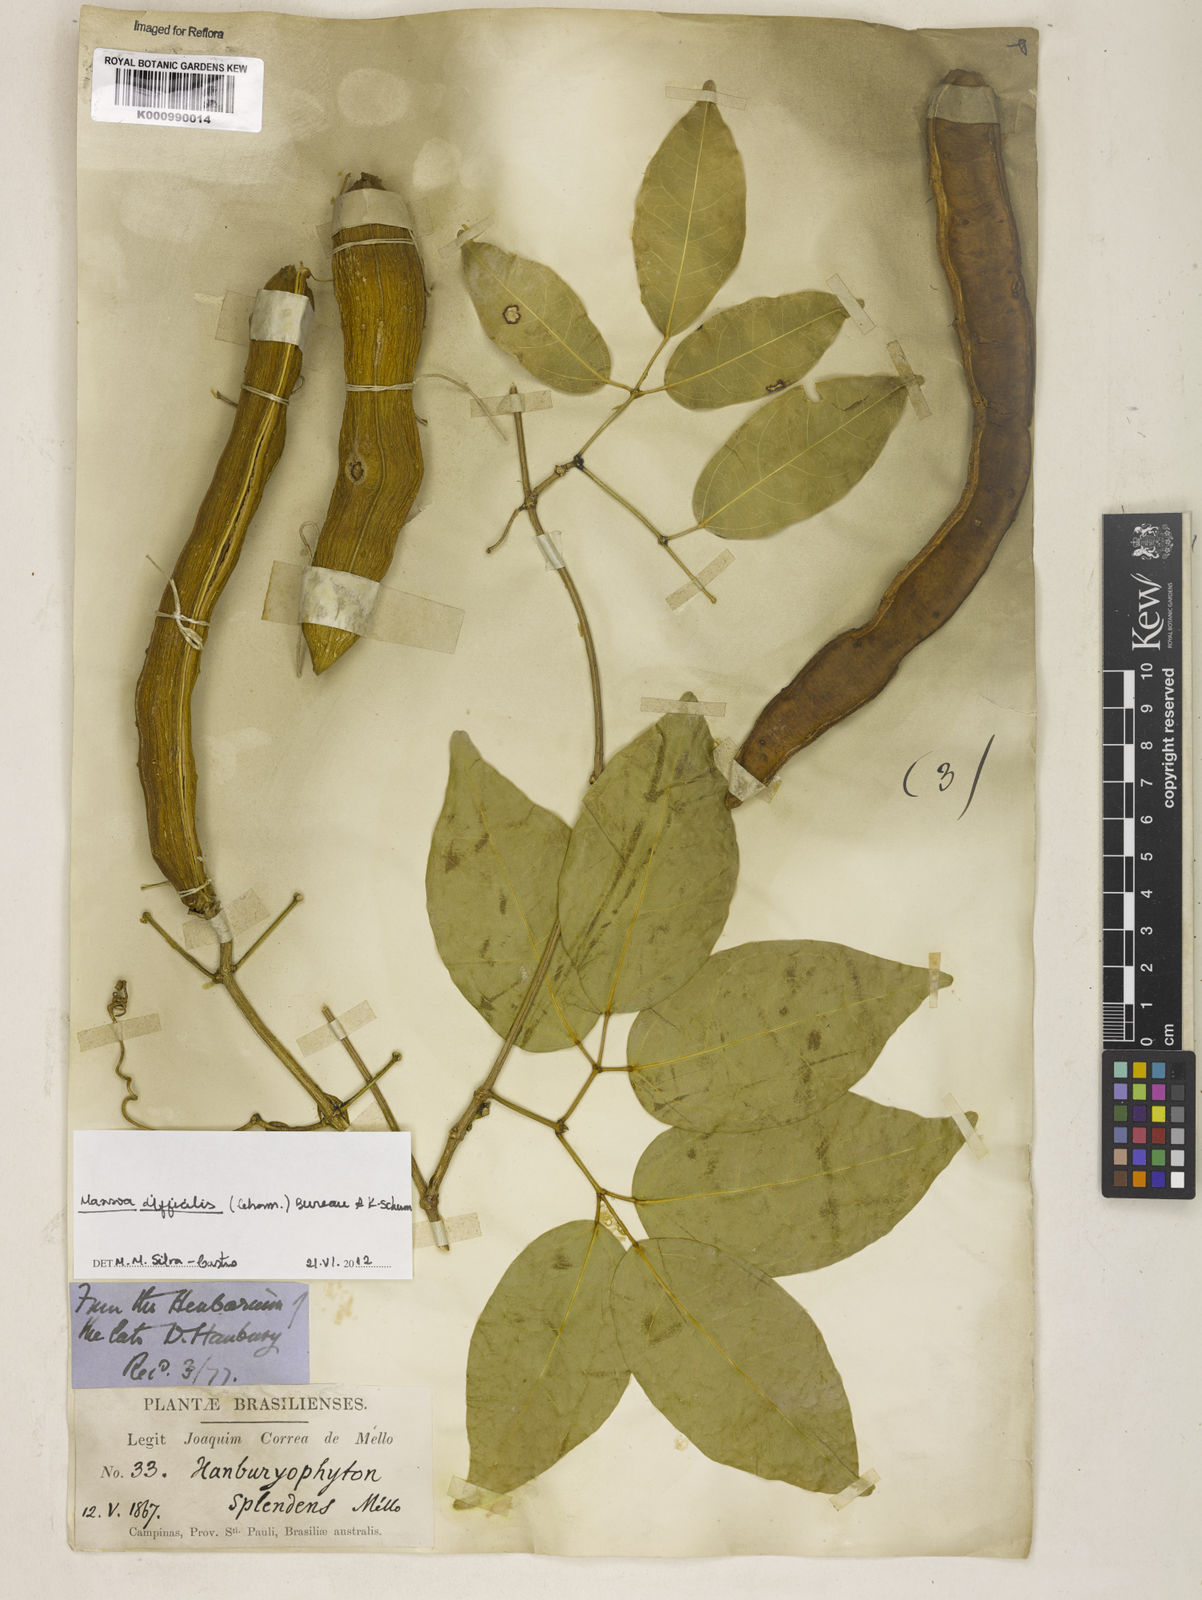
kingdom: Plantae
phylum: Tracheophyta
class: Magnoliopsida
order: Lamiales
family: Bignoniaceae
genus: Mansoa
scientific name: Mansoa difficilis
